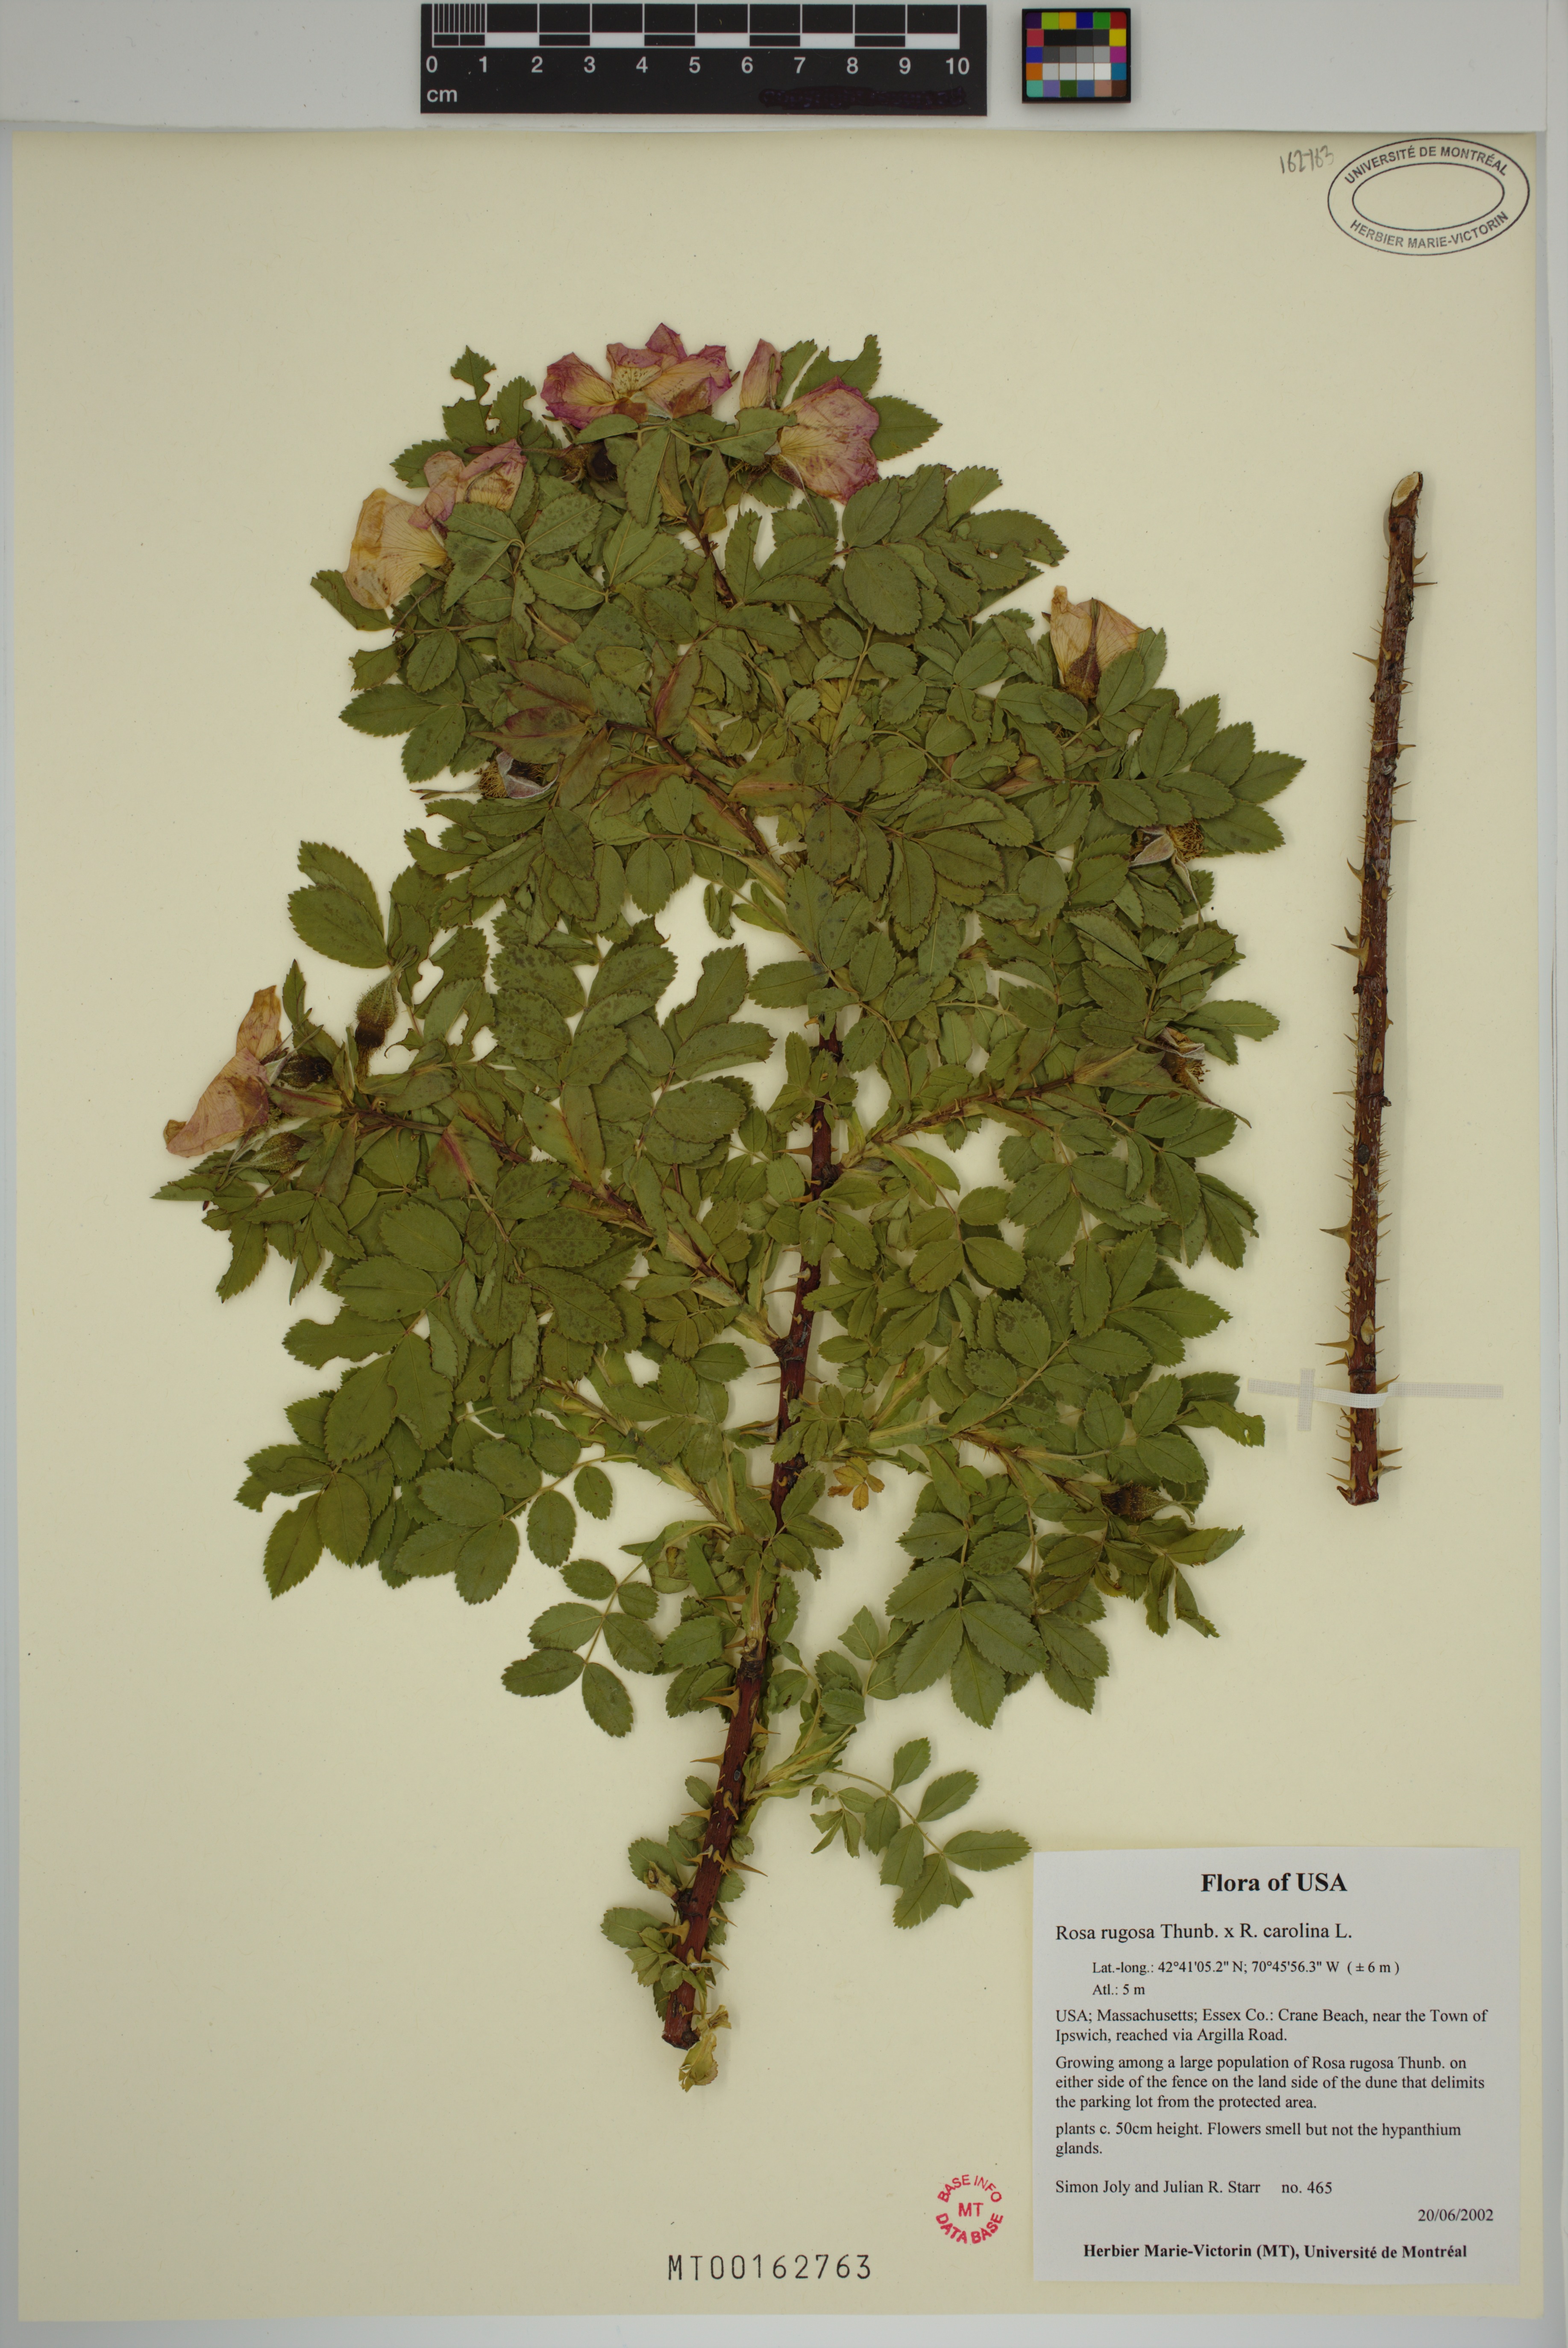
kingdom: Plantae
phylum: Tracheophyta
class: Magnoliopsida
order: Rosales
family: Rosaceae
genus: Rosa
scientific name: Rosa spaethiana
